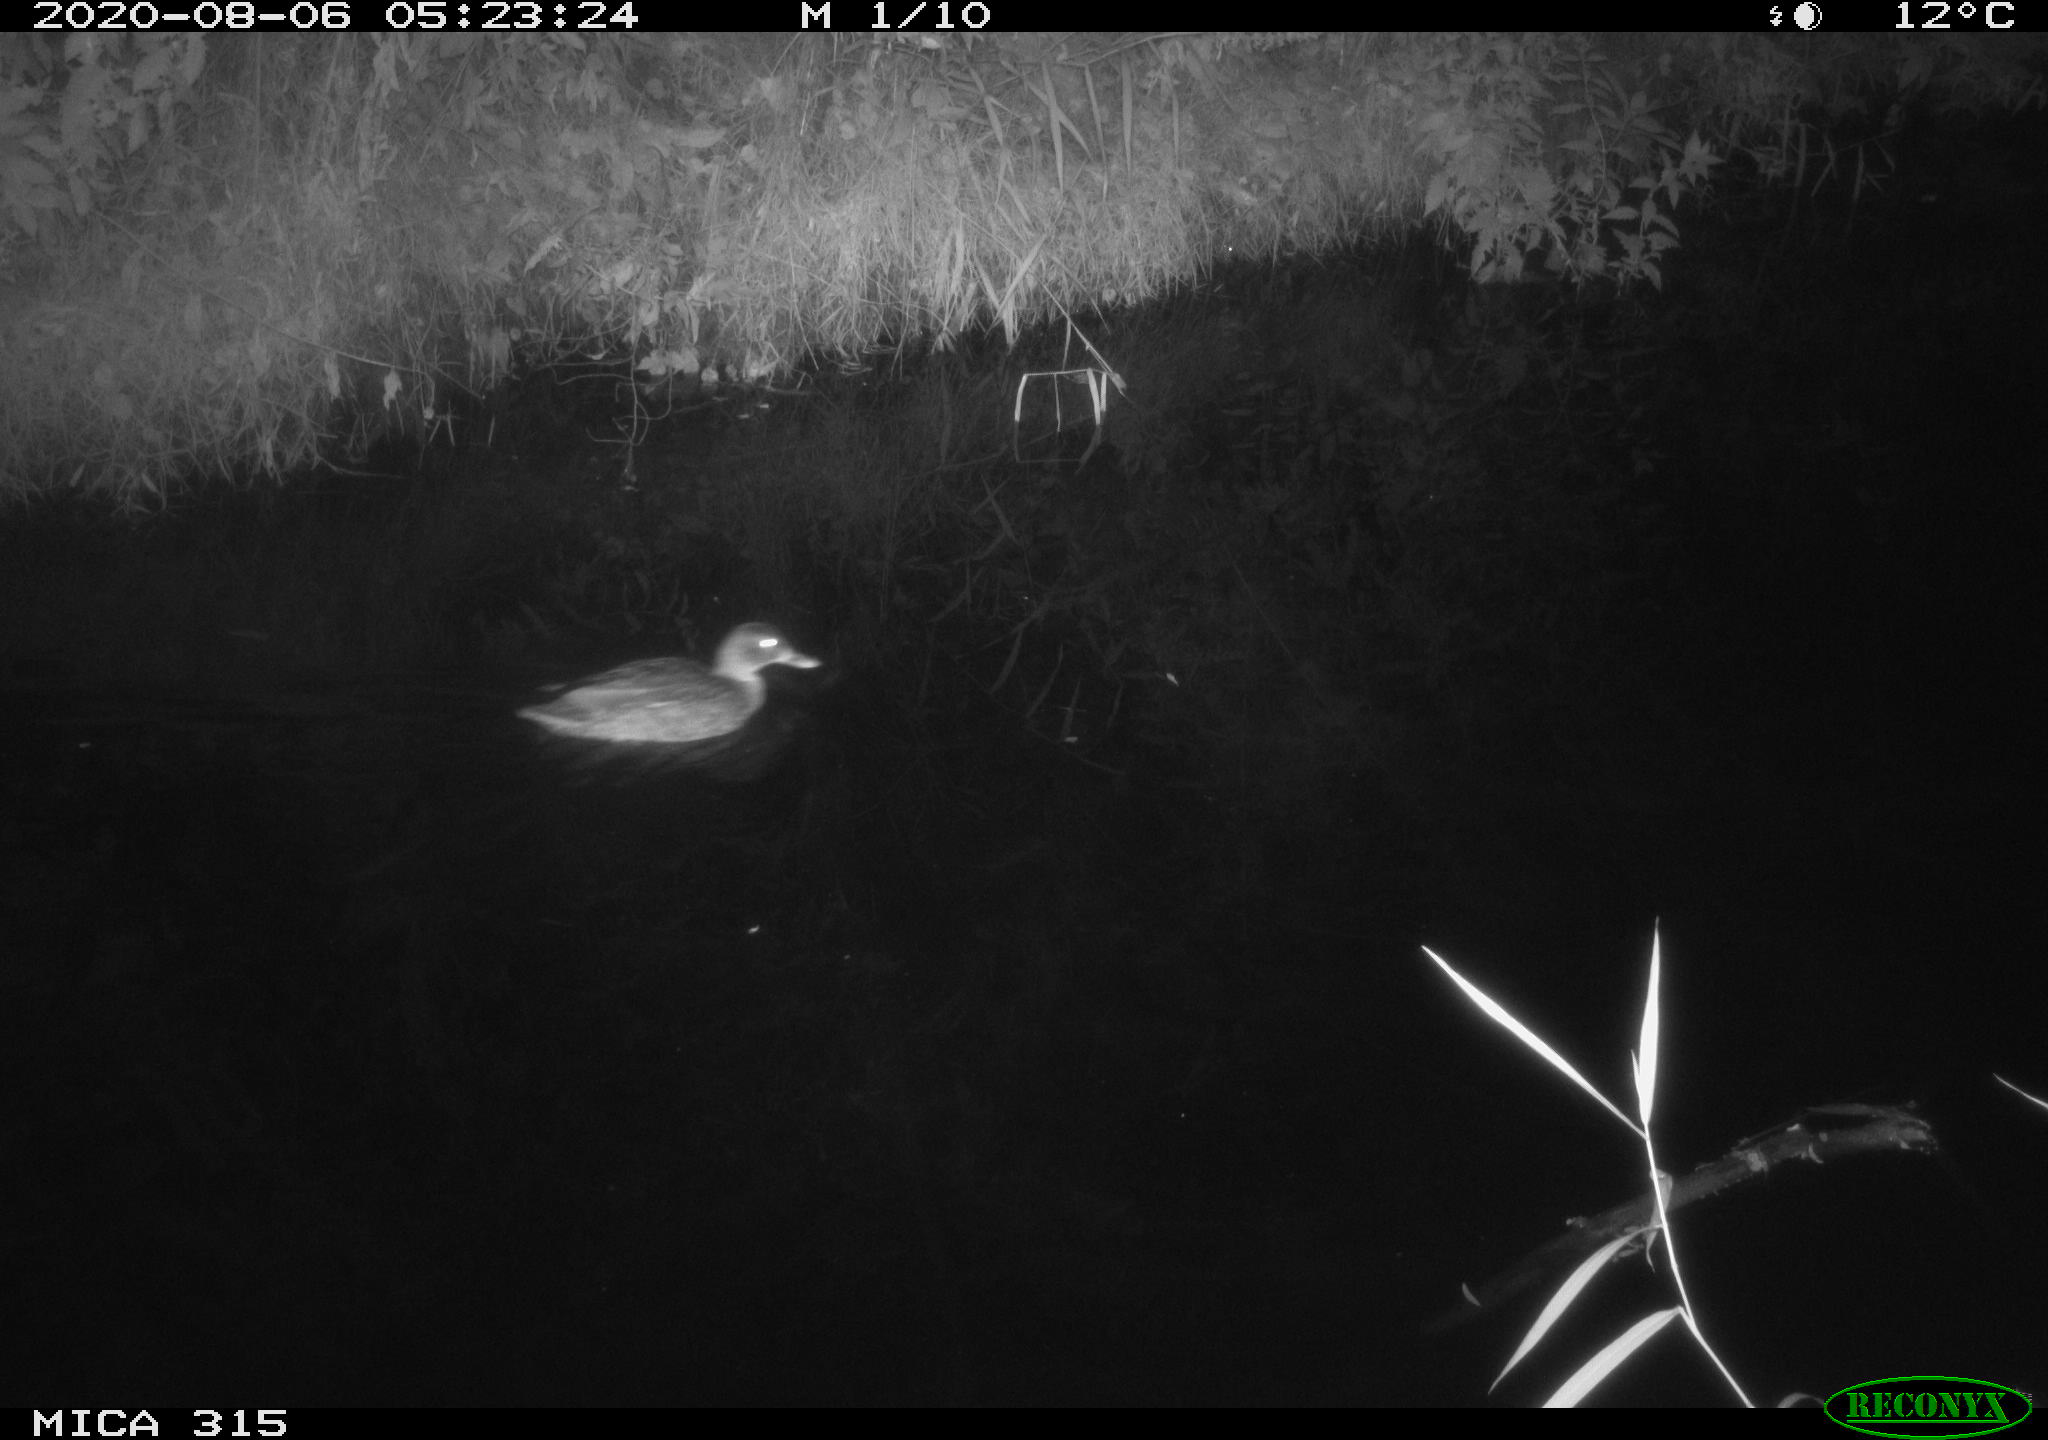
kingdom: Animalia
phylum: Chordata
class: Aves
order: Anseriformes
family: Anatidae
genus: Anas
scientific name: Anas platyrhynchos
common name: Mallard
